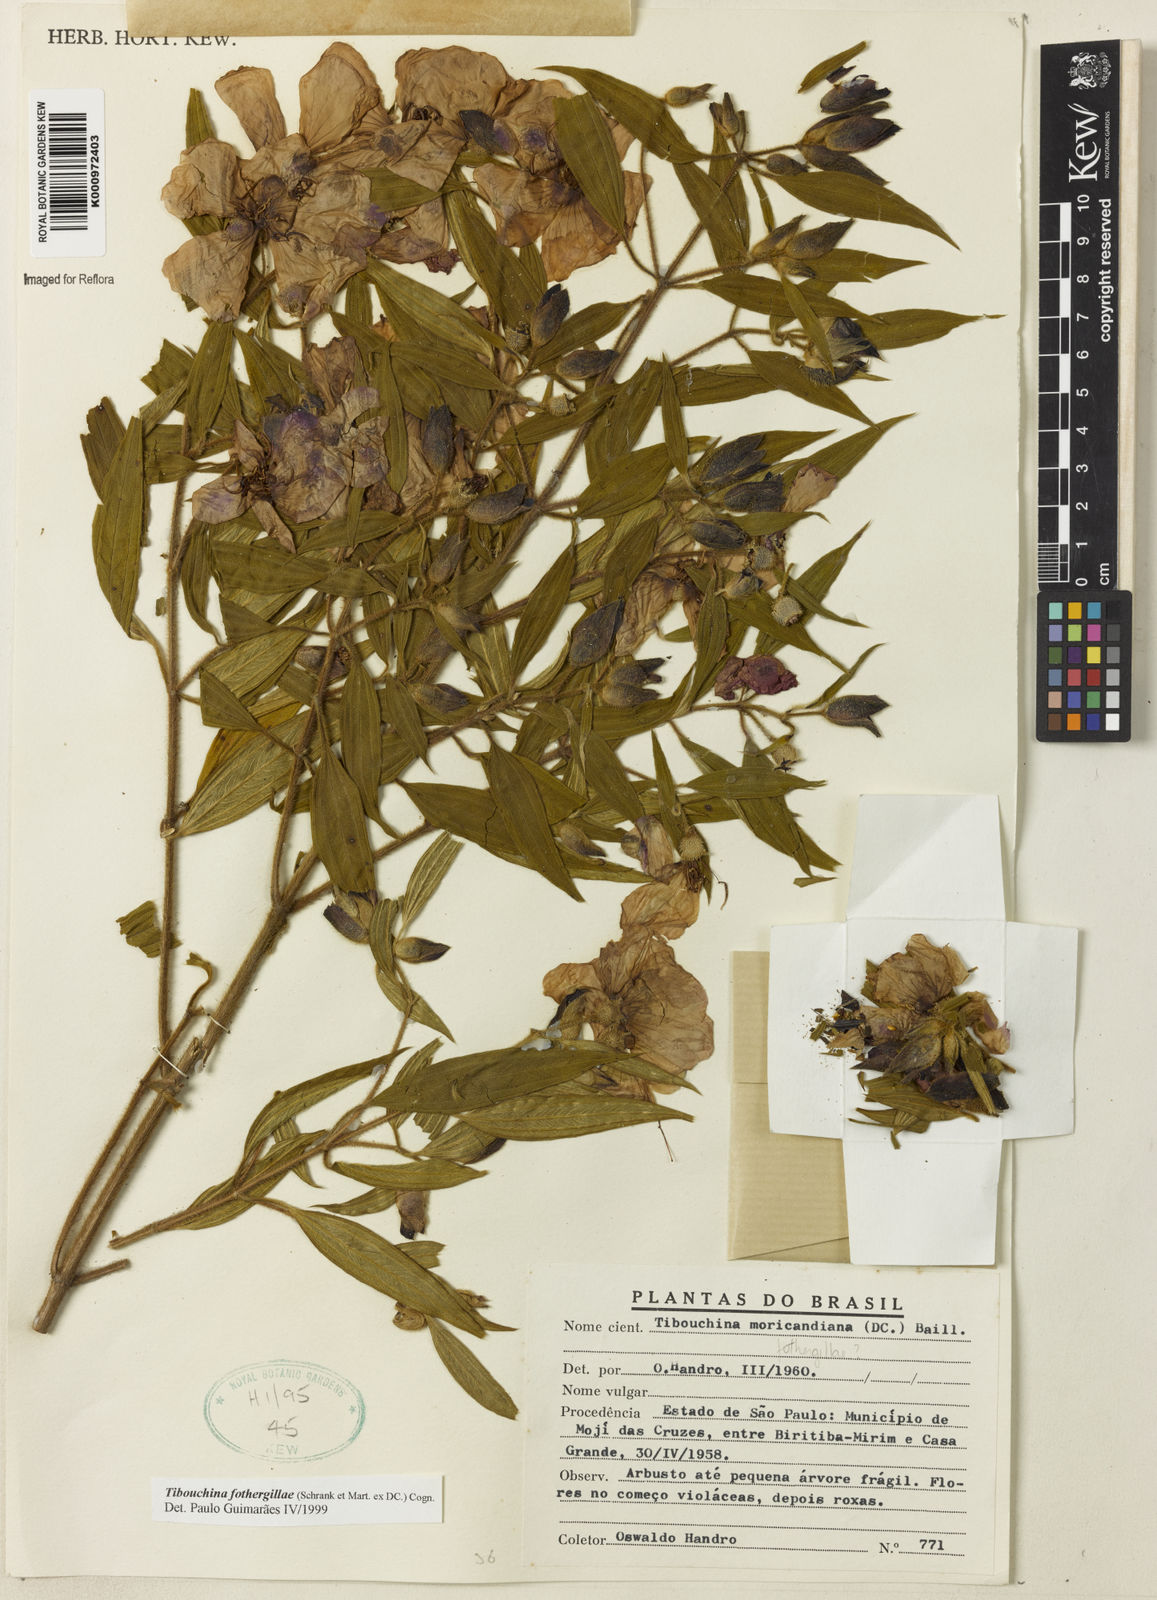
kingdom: Plantae
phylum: Tracheophyta
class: Magnoliopsida
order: Myrtales
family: Melastomataceae
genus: Pleroma
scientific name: Pleroma fothergillae
